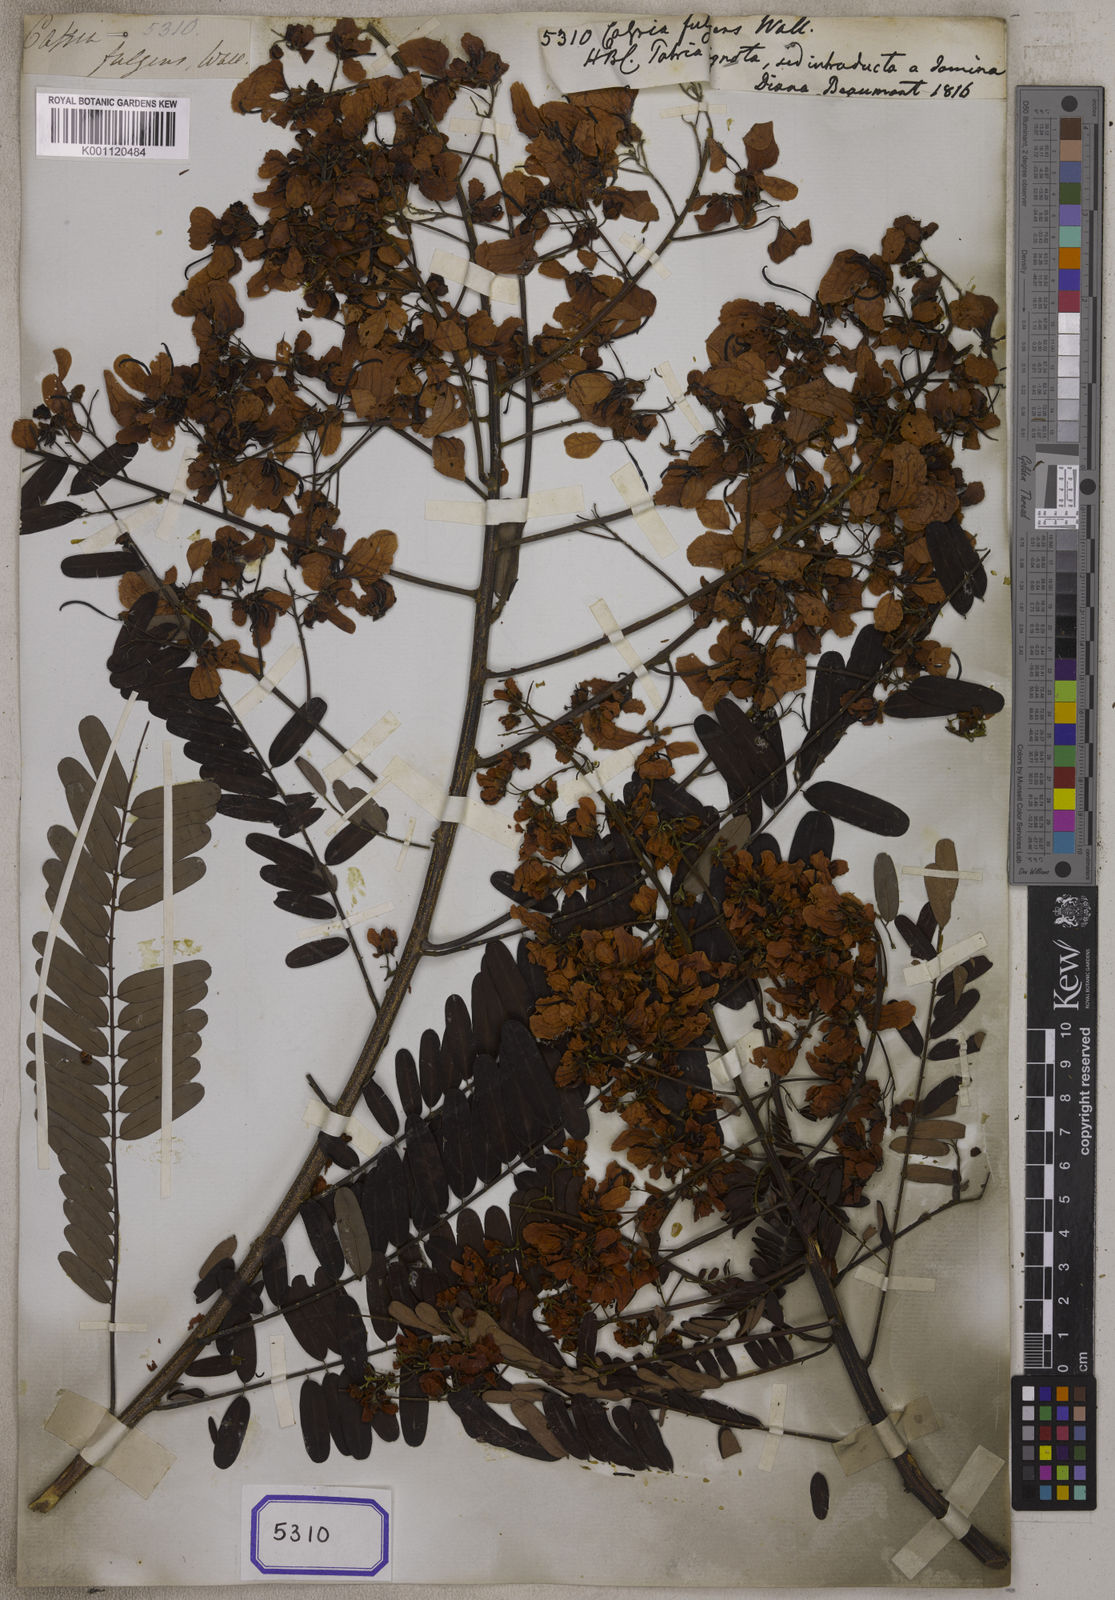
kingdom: Plantae
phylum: Tracheophyta
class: Magnoliopsida
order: Fabales
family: Fabaceae
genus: Cassia
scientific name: Cassia
